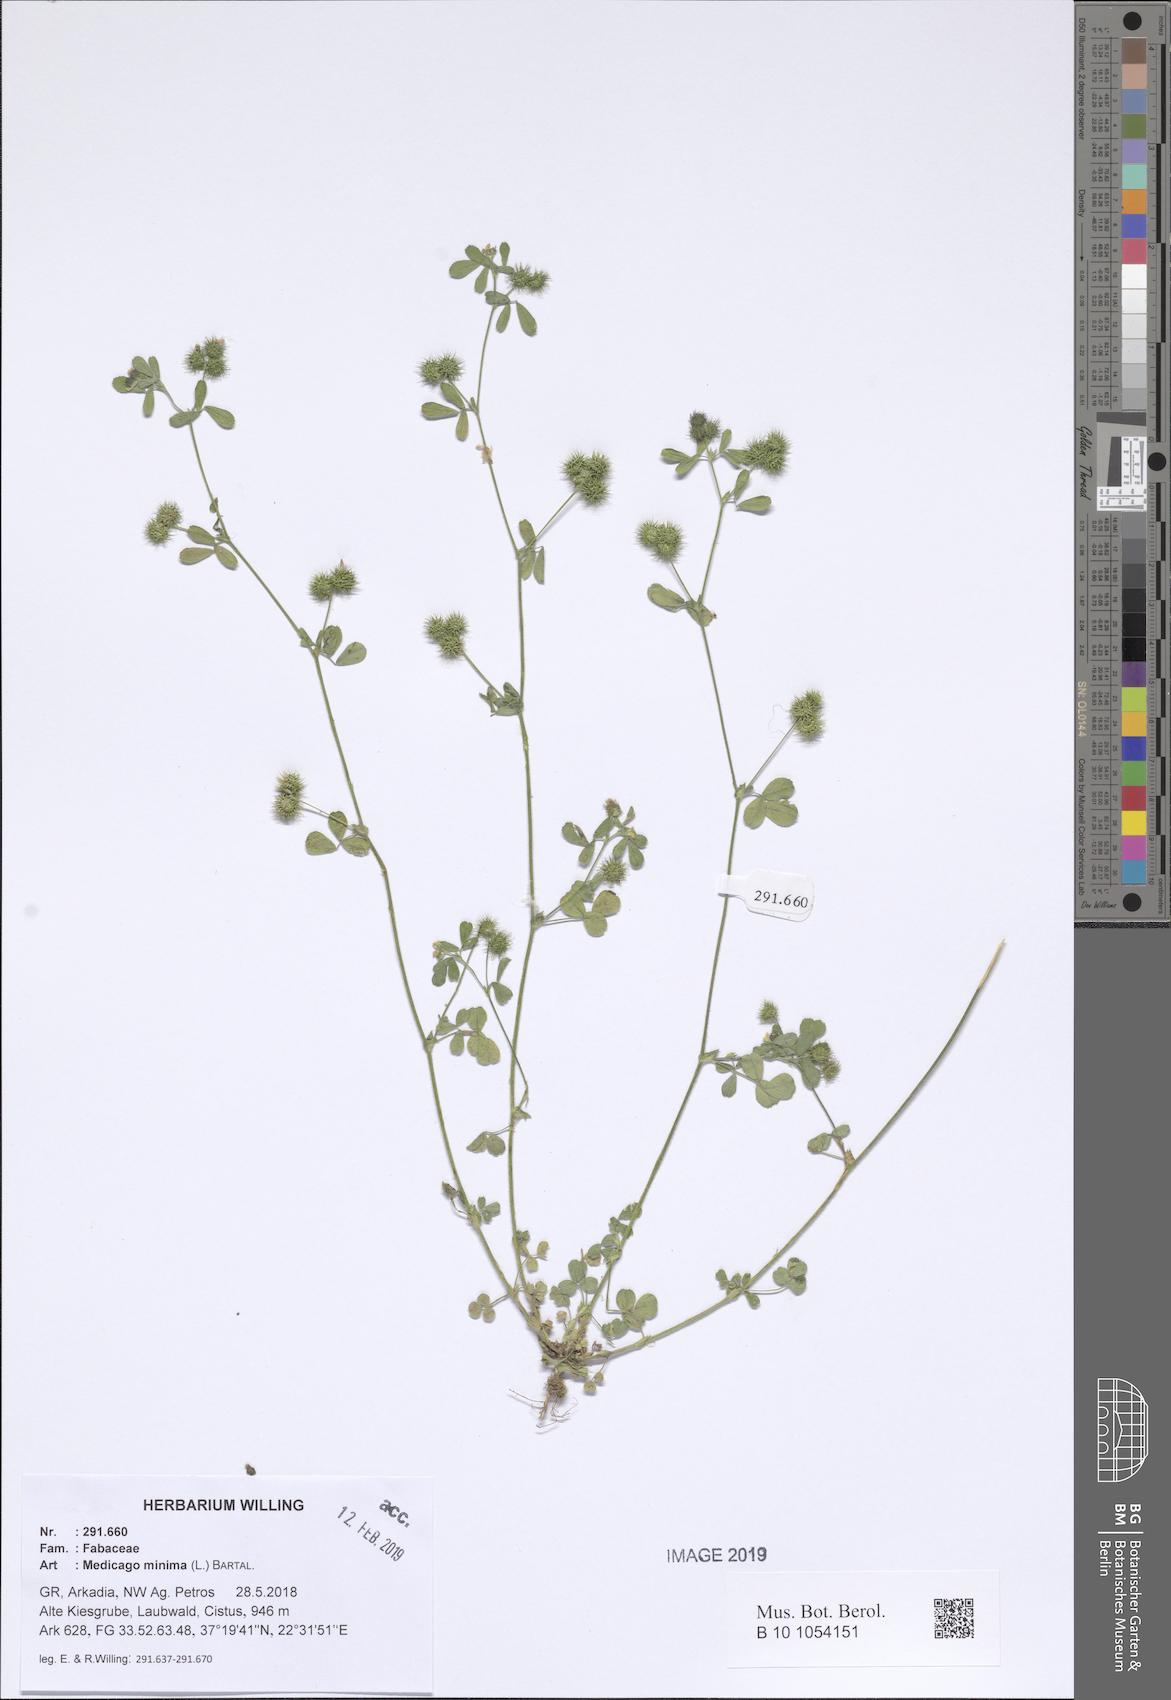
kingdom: Plantae
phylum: Tracheophyta
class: Magnoliopsida
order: Fabales
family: Fabaceae
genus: Medicago
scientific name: Medicago minima
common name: Little bur-clover
